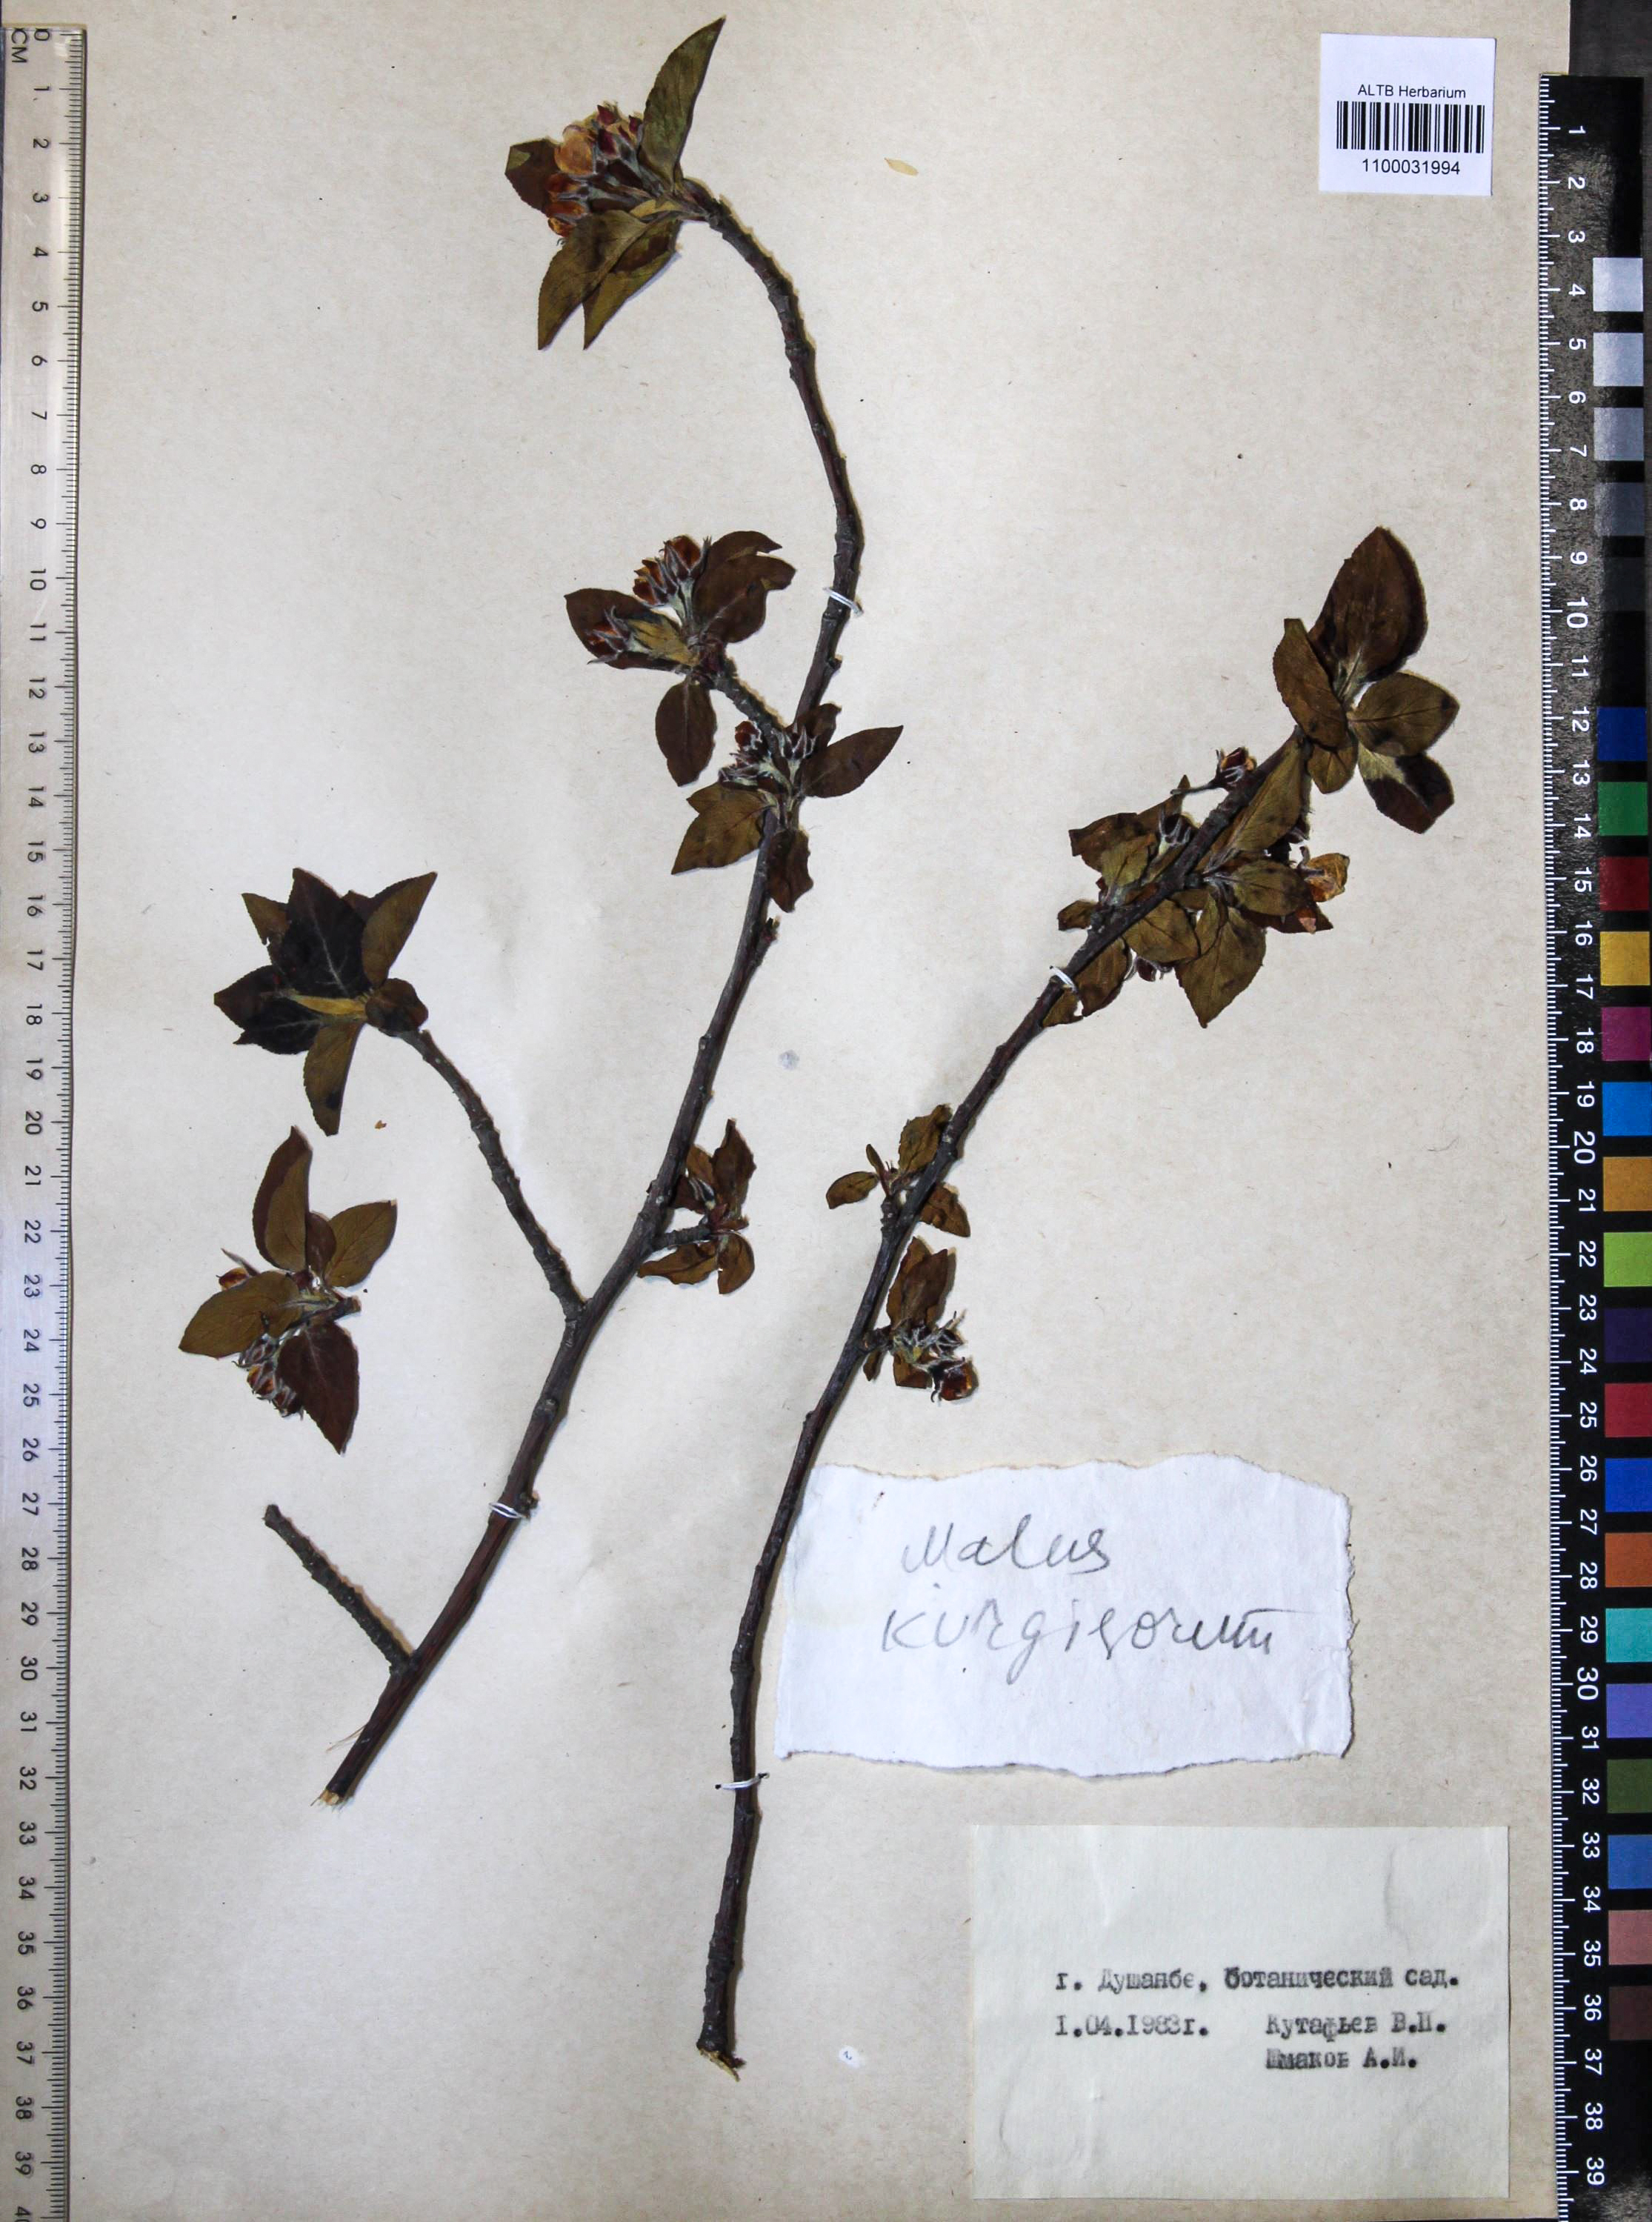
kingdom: Plantae
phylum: Tracheophyta
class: Magnoliopsida
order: Rosales
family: Rosaceae
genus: Malus
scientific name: Malus domestica
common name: Apple
